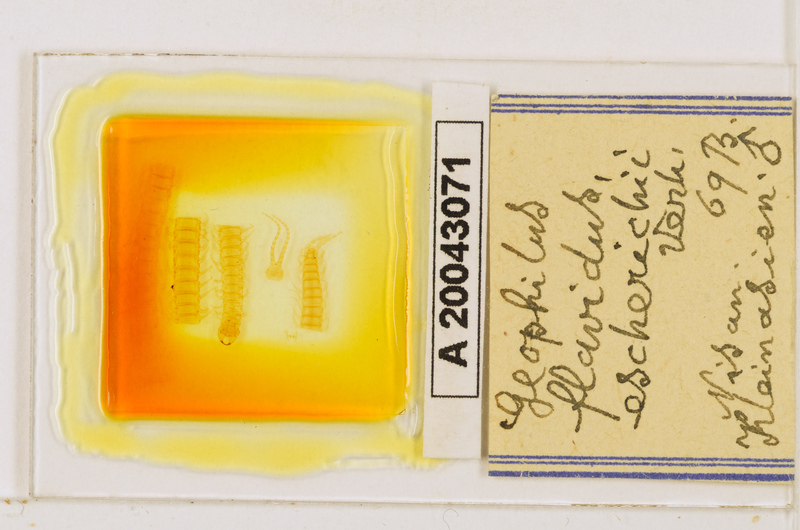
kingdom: Animalia
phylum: Arthropoda
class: Chilopoda
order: Geophilomorpha
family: Geophilidae
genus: Clinopodes
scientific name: Clinopodes flavidus
